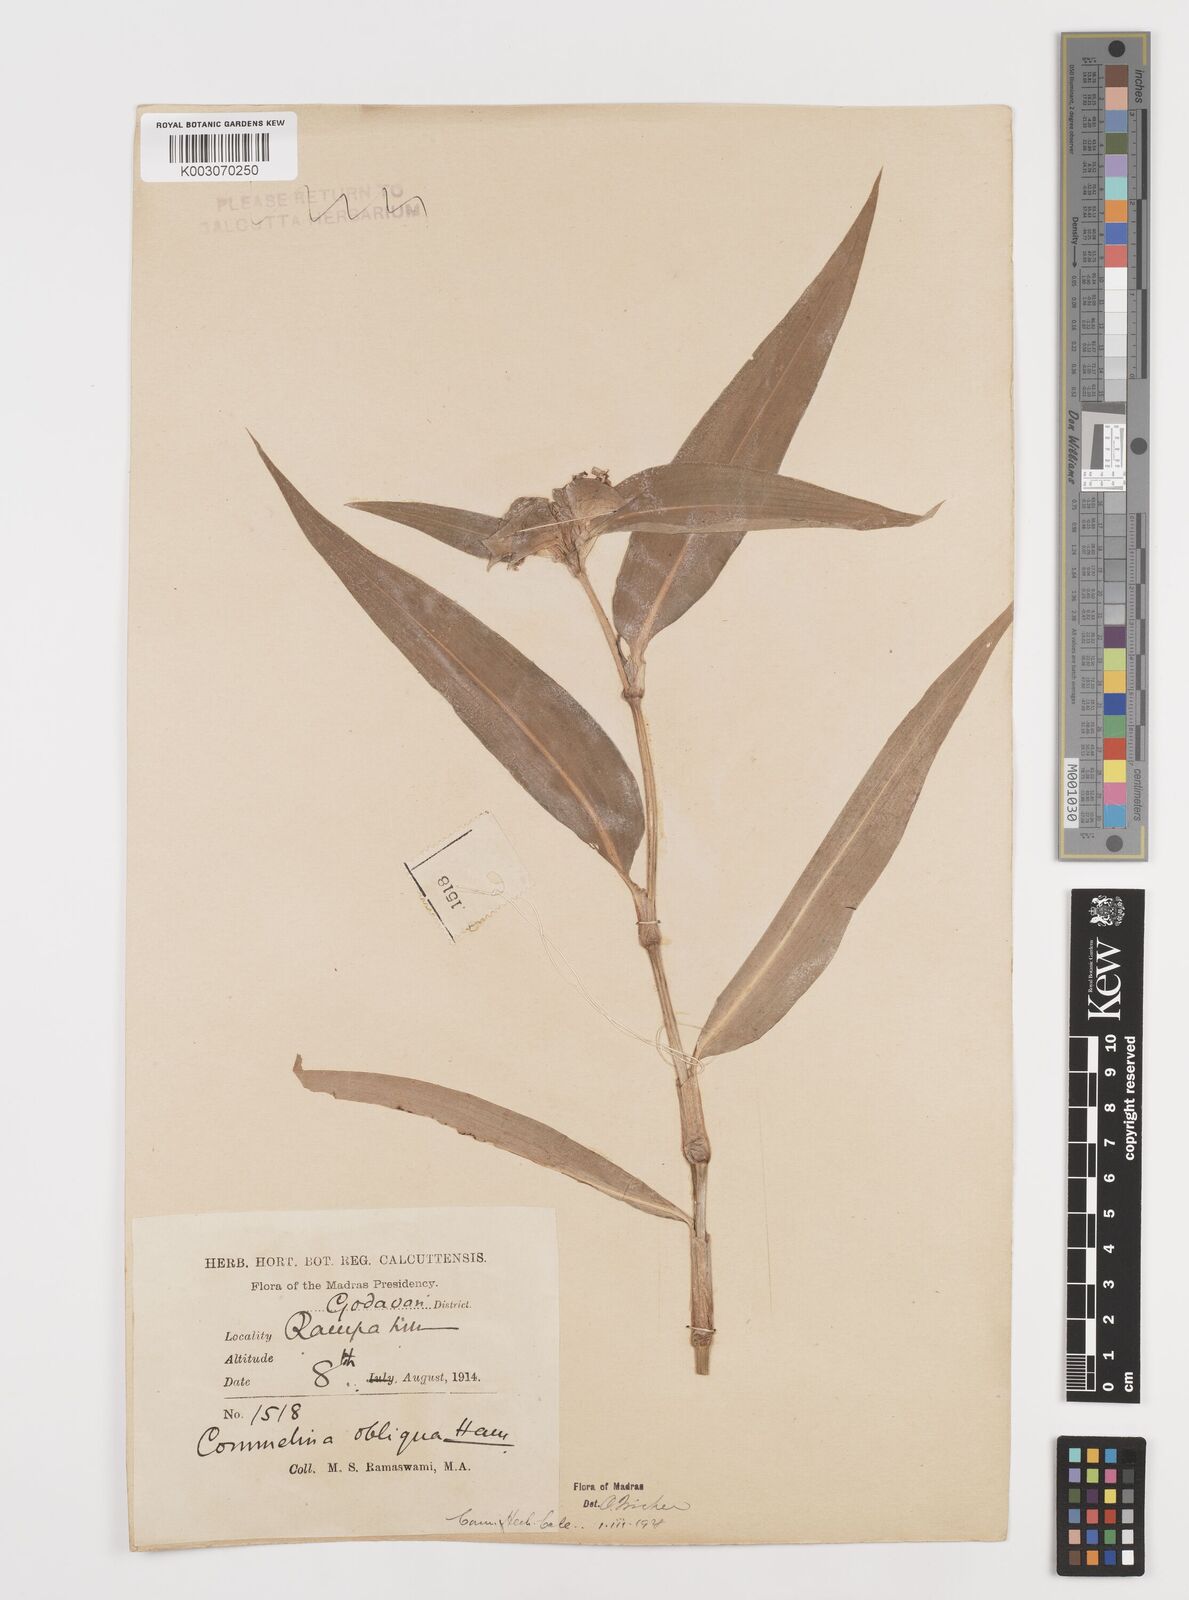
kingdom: Plantae
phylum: Tracheophyta
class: Liliopsida
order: Commelinales
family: Commelinaceae
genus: Commelina
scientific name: Commelina paludosa
